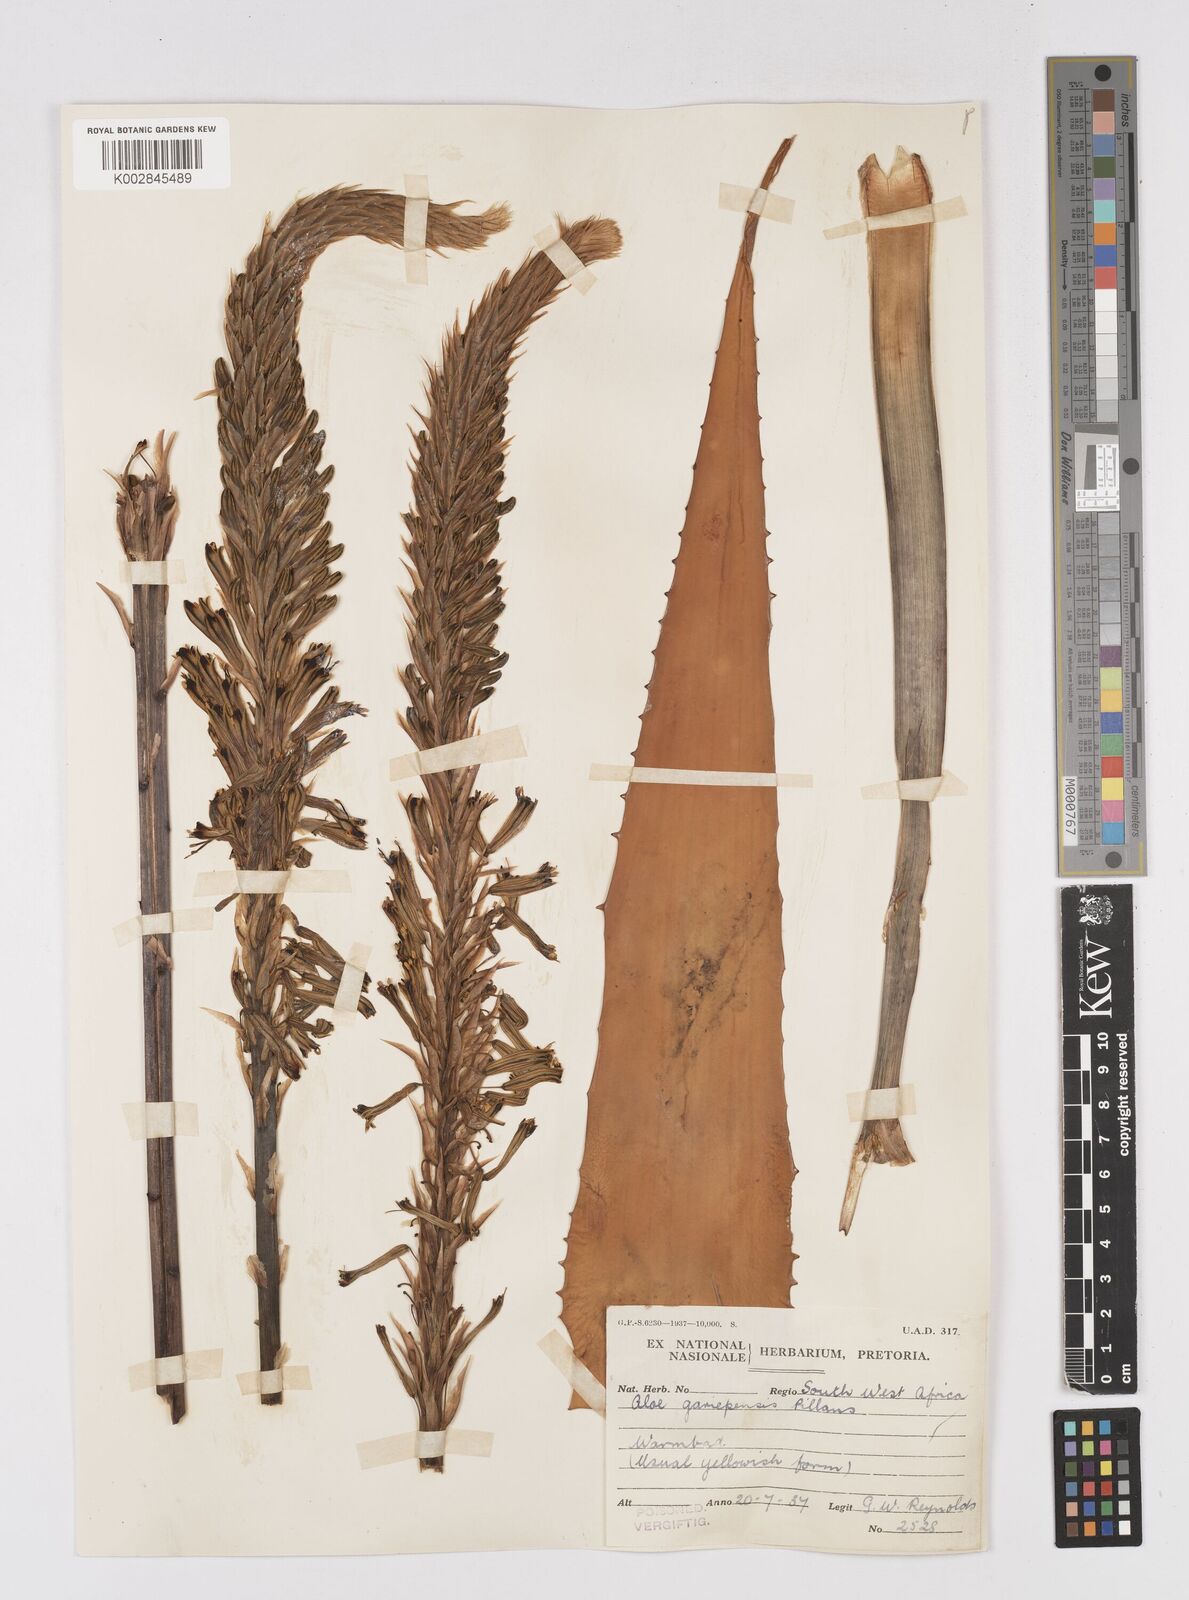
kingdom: Plantae
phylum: Tracheophyta
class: Liliopsida
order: Asparagales
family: Asphodelaceae
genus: Aloe
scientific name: Aloe gariepensis
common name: Orange river aloe
